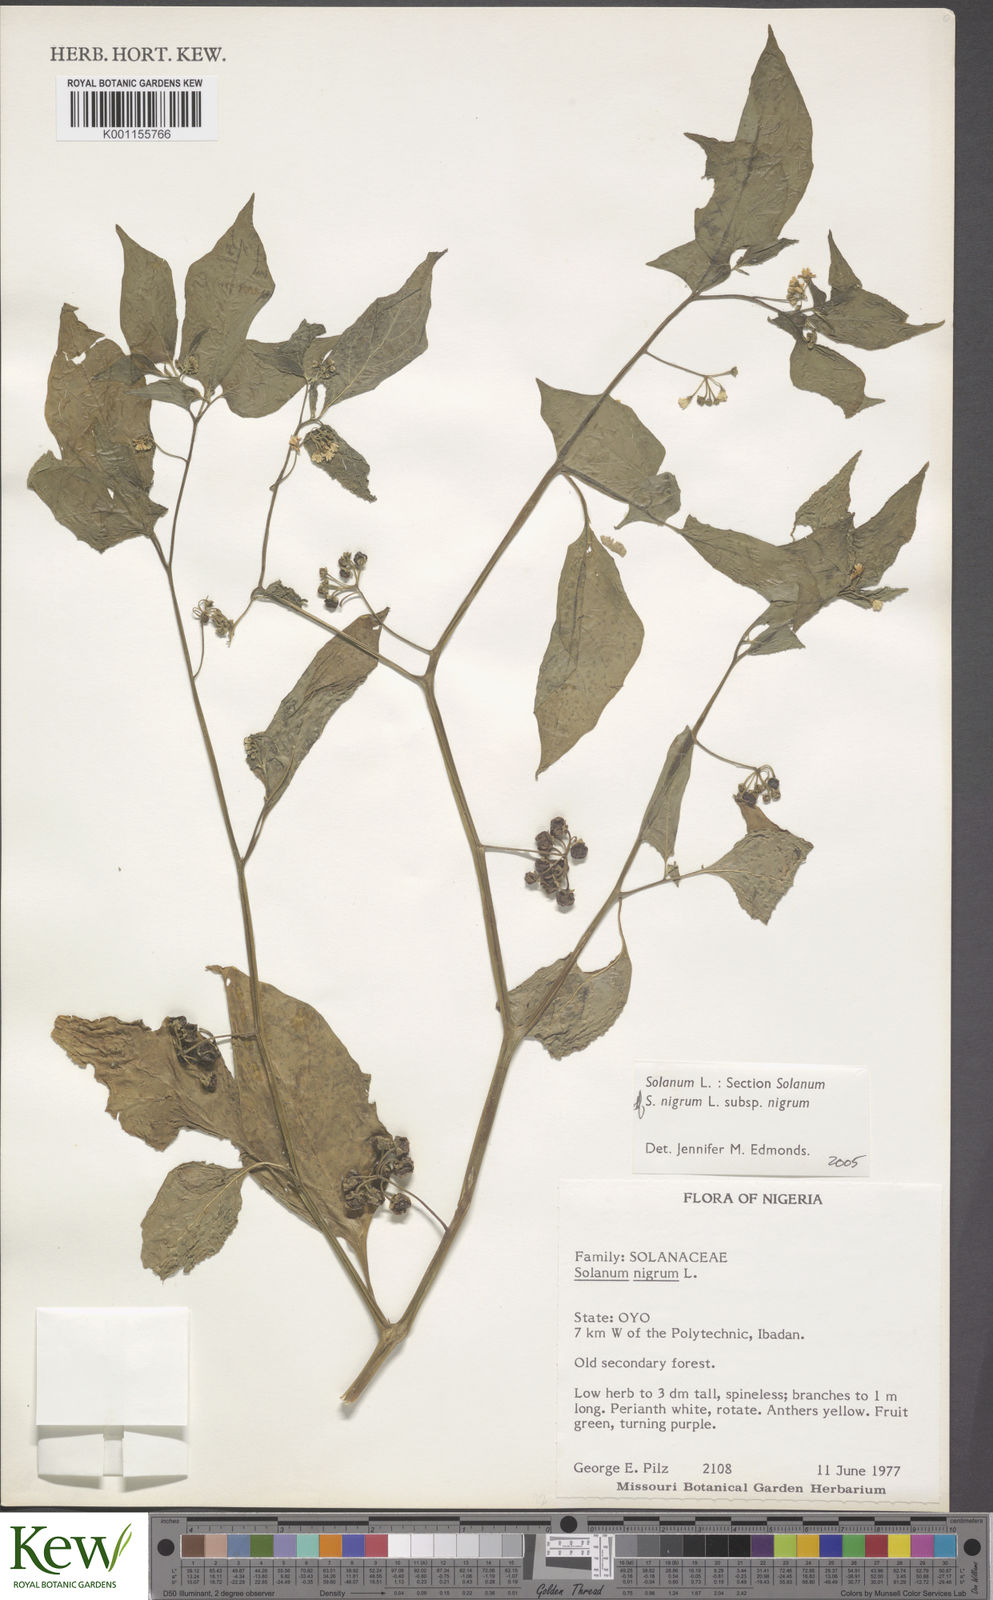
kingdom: Plantae
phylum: Tracheophyta
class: Magnoliopsida
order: Solanales
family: Solanaceae
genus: Solanum
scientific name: Solanum scabrum
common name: Garden-huckleberry
